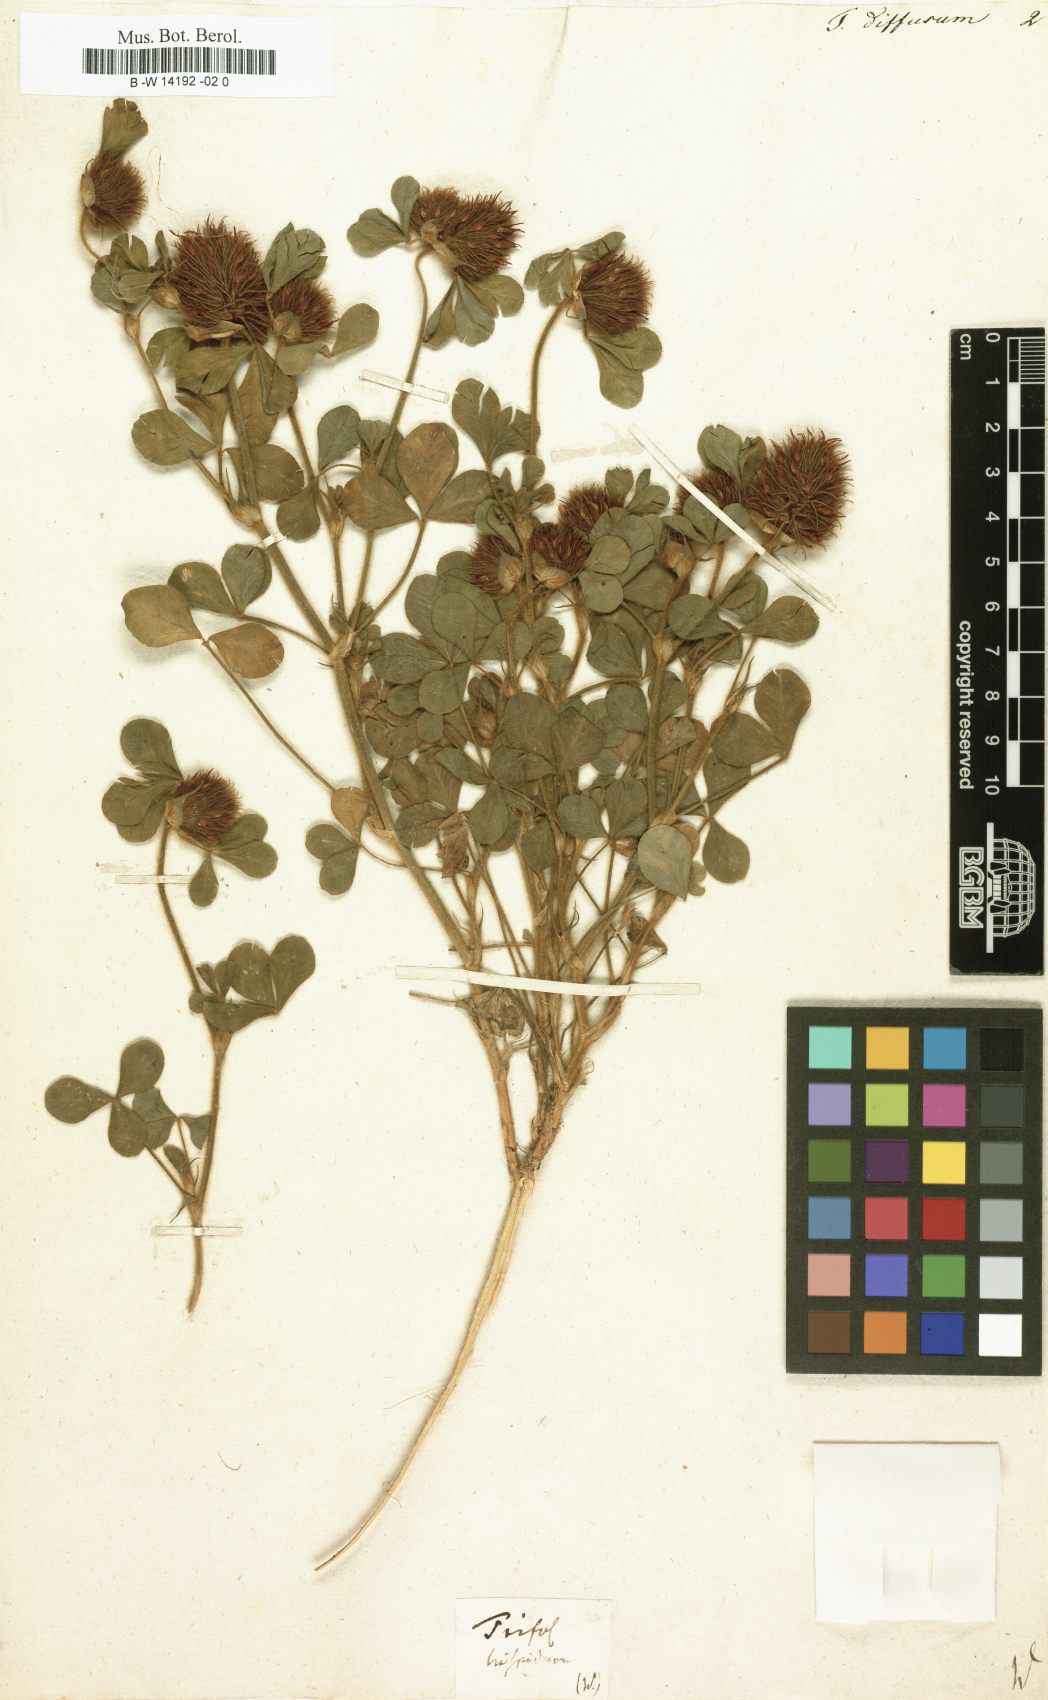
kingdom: Plantae
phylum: Tracheophyta
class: Magnoliopsida
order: Fabales
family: Fabaceae
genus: Trifolium
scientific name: Trifolium diffusum
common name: Diffuse clover
